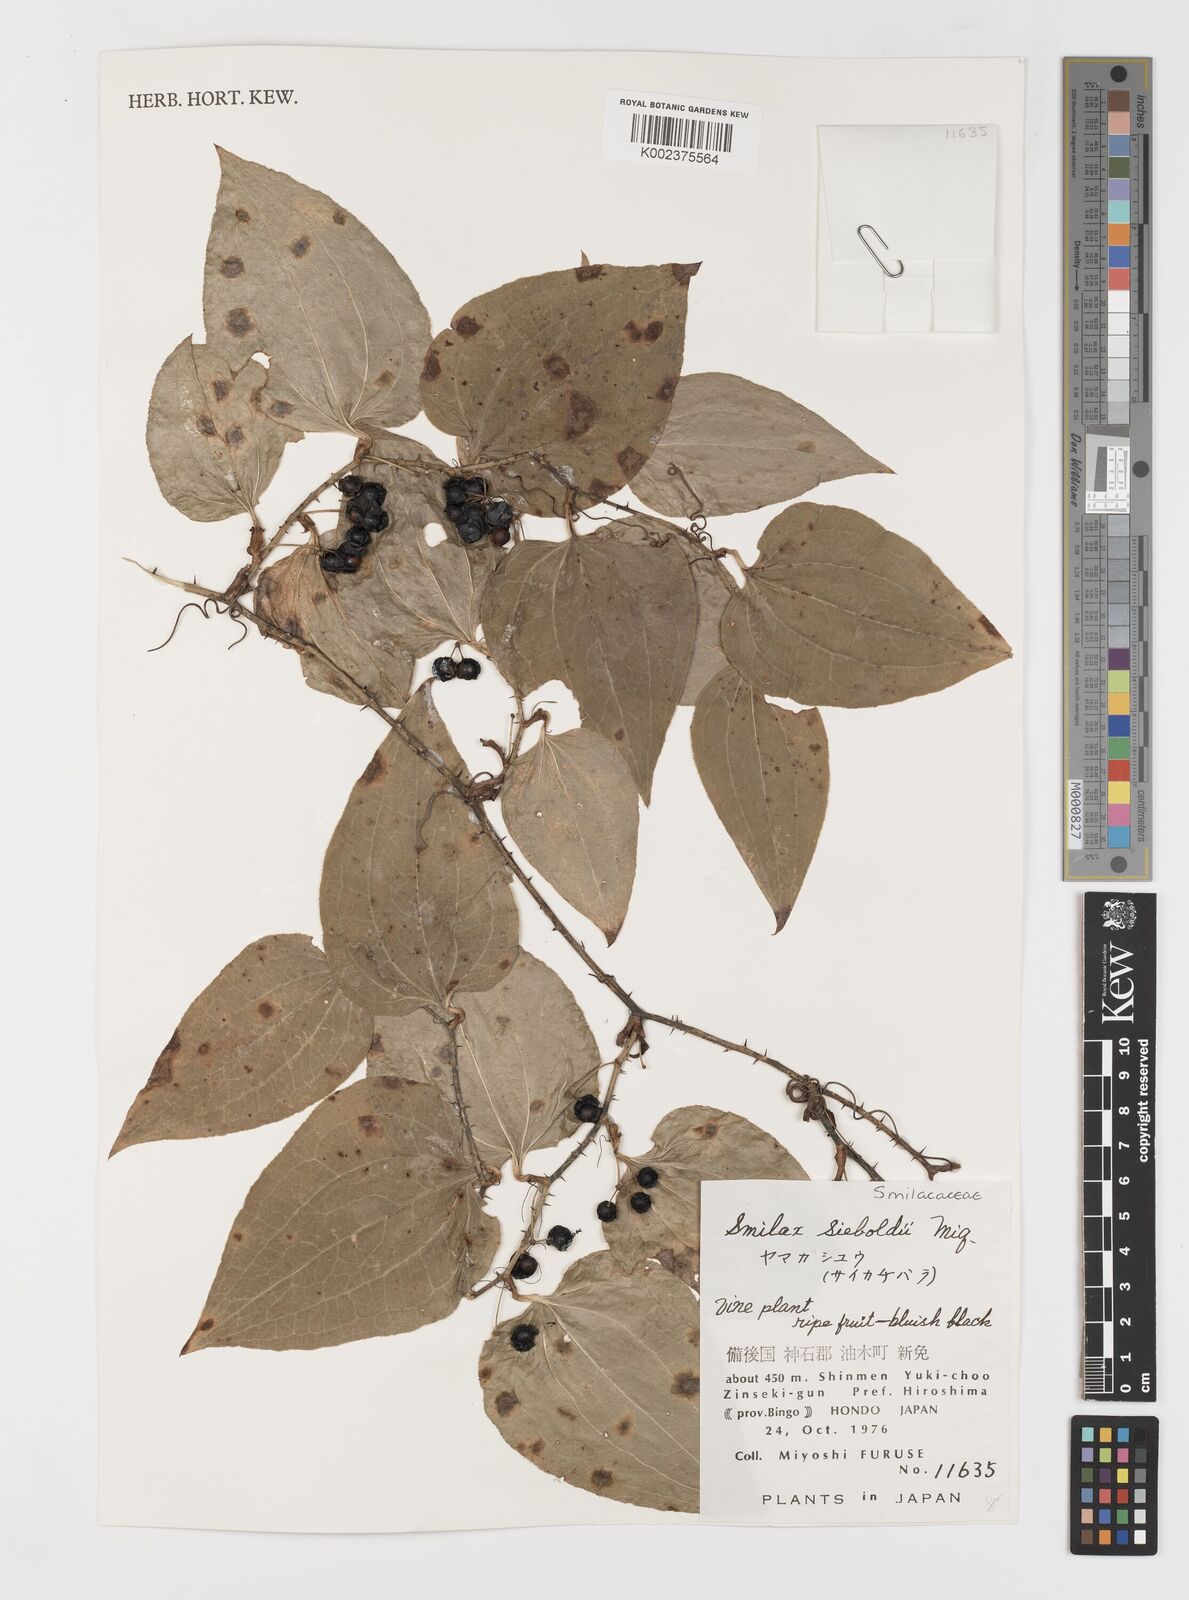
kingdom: Plantae
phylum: Tracheophyta
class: Liliopsida
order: Liliales
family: Smilacaceae
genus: Smilax
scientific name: Smilax sieboldii
